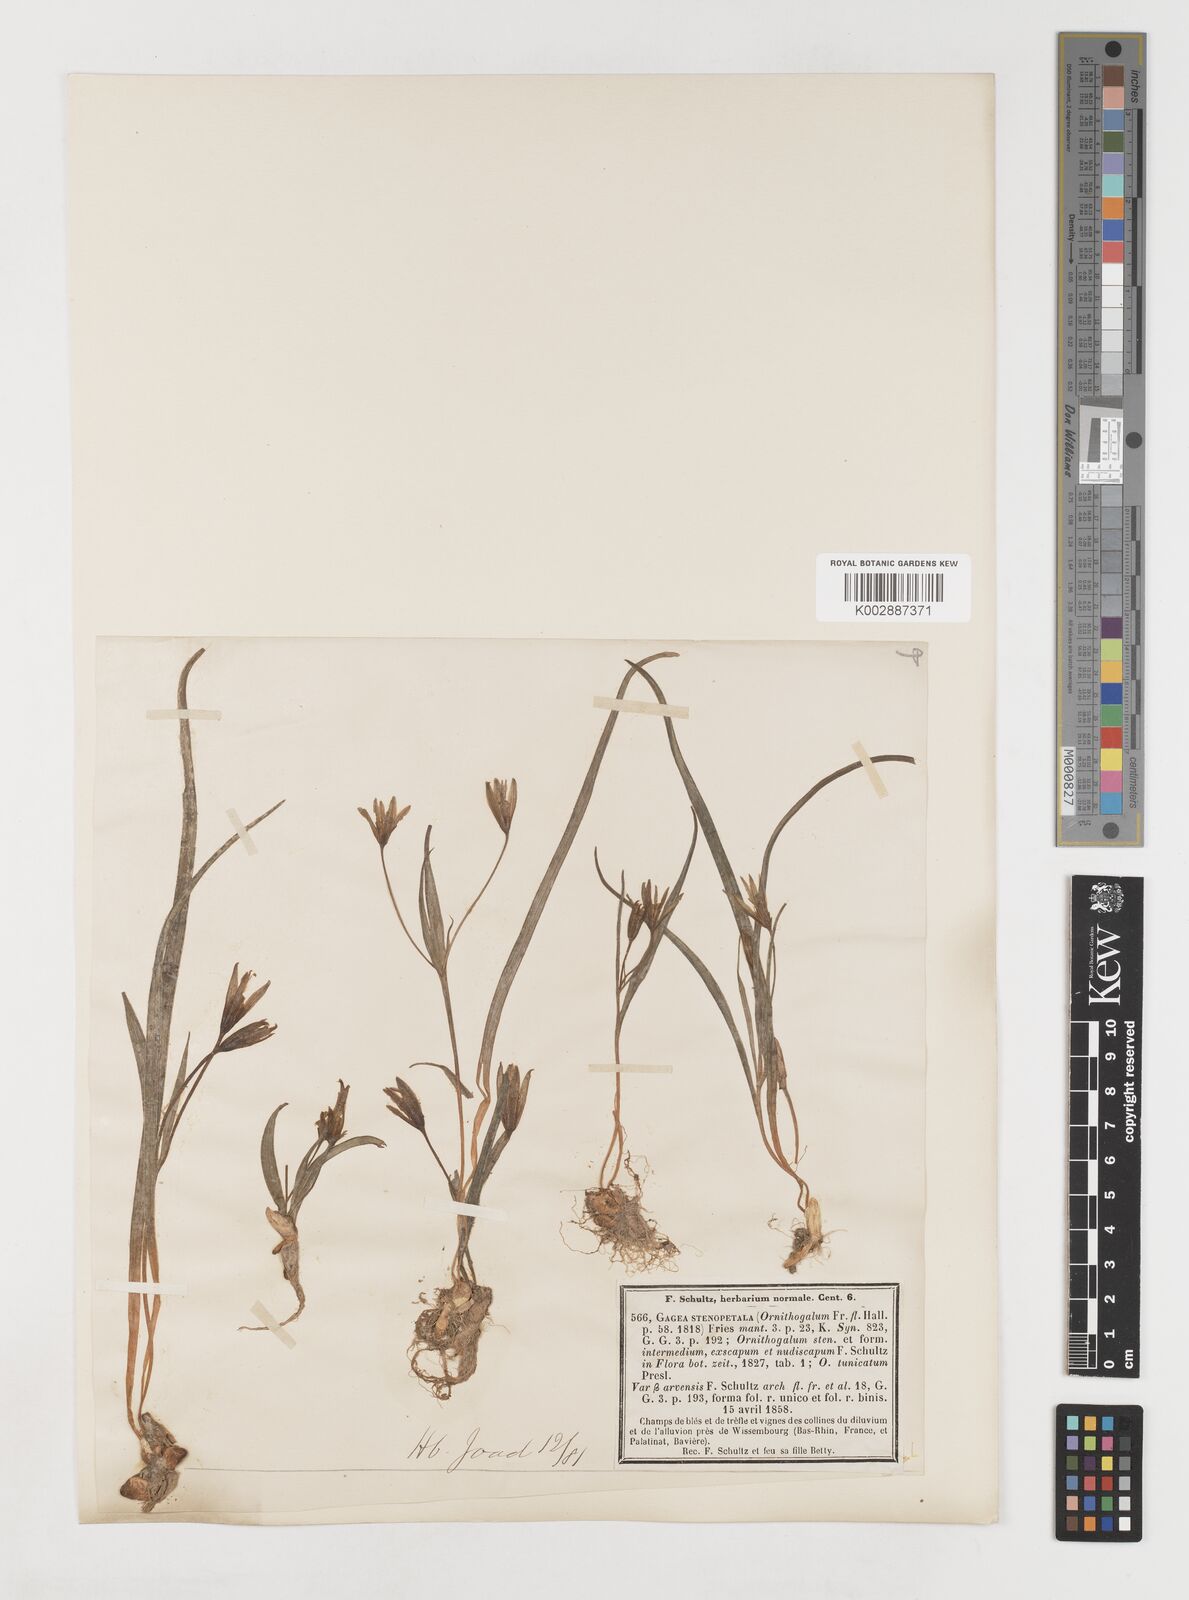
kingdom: Plantae
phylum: Tracheophyta
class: Liliopsida
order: Liliales
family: Liliaceae
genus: Gagea
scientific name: Gagea pratensis
